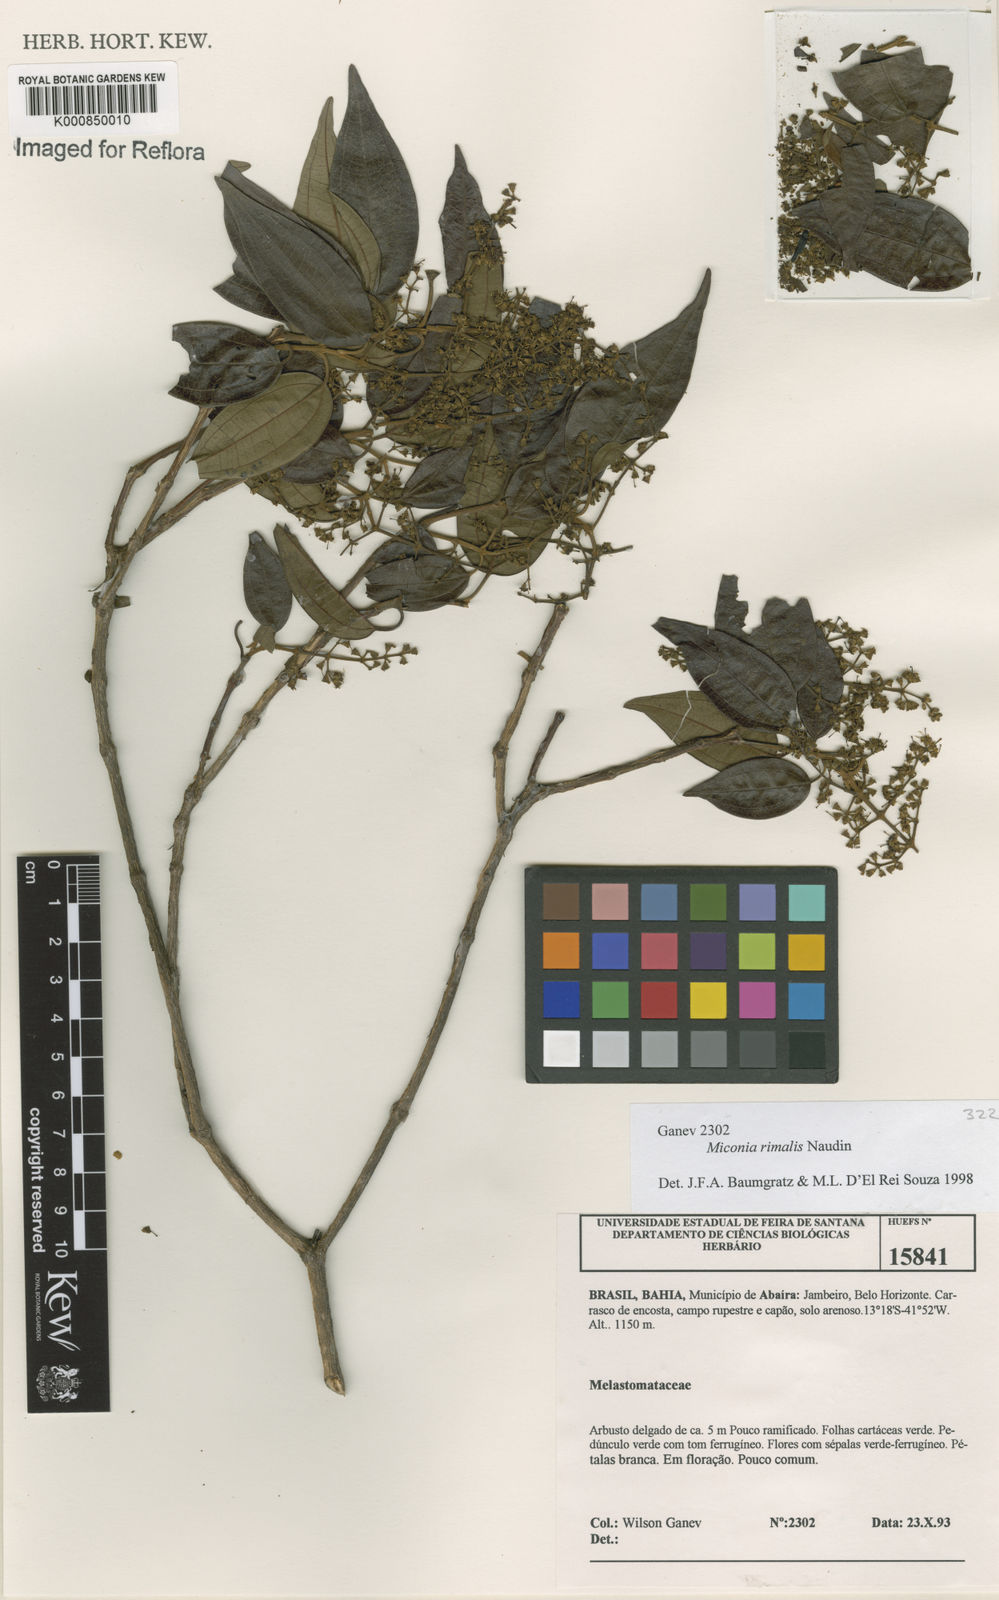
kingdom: Plantae
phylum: Tracheophyta
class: Magnoliopsida
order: Myrtales
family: Melastomataceae
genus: Miconia
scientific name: Miconia
